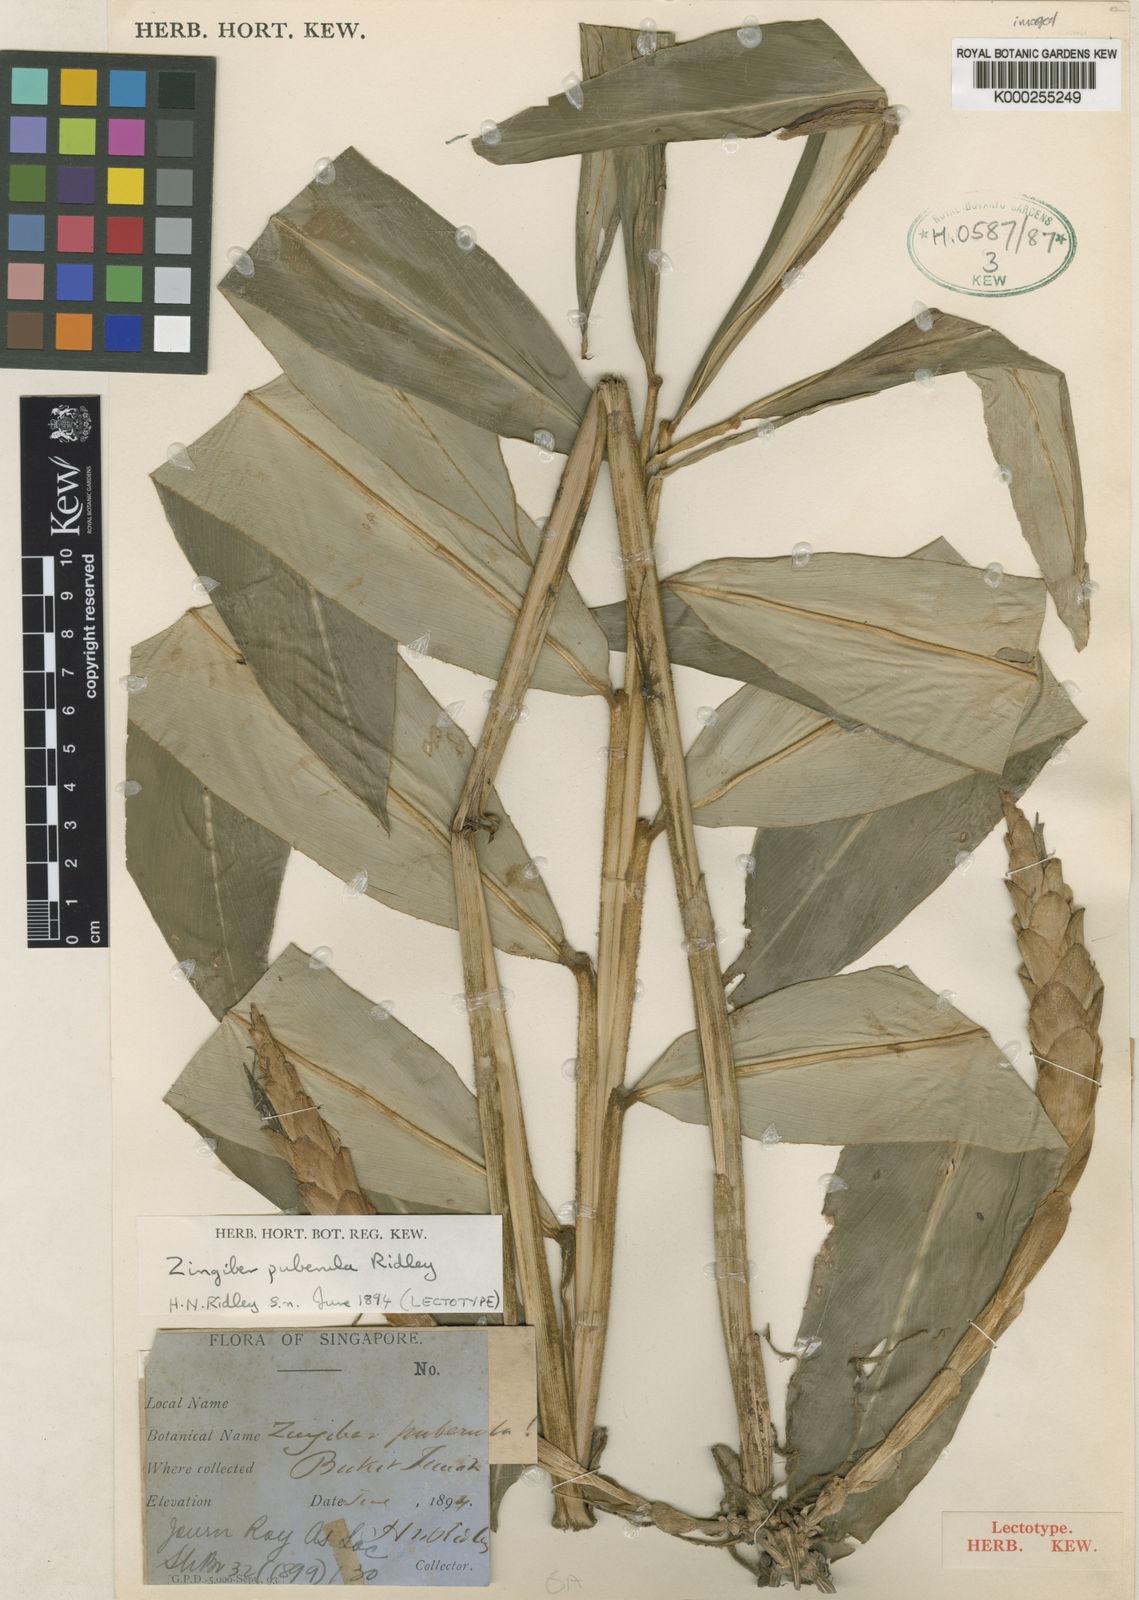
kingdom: Plantae
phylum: Tracheophyta
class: Liliopsida
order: Zingiberales
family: Zingiberaceae
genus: Zingiber
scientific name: Zingiber puberulum
